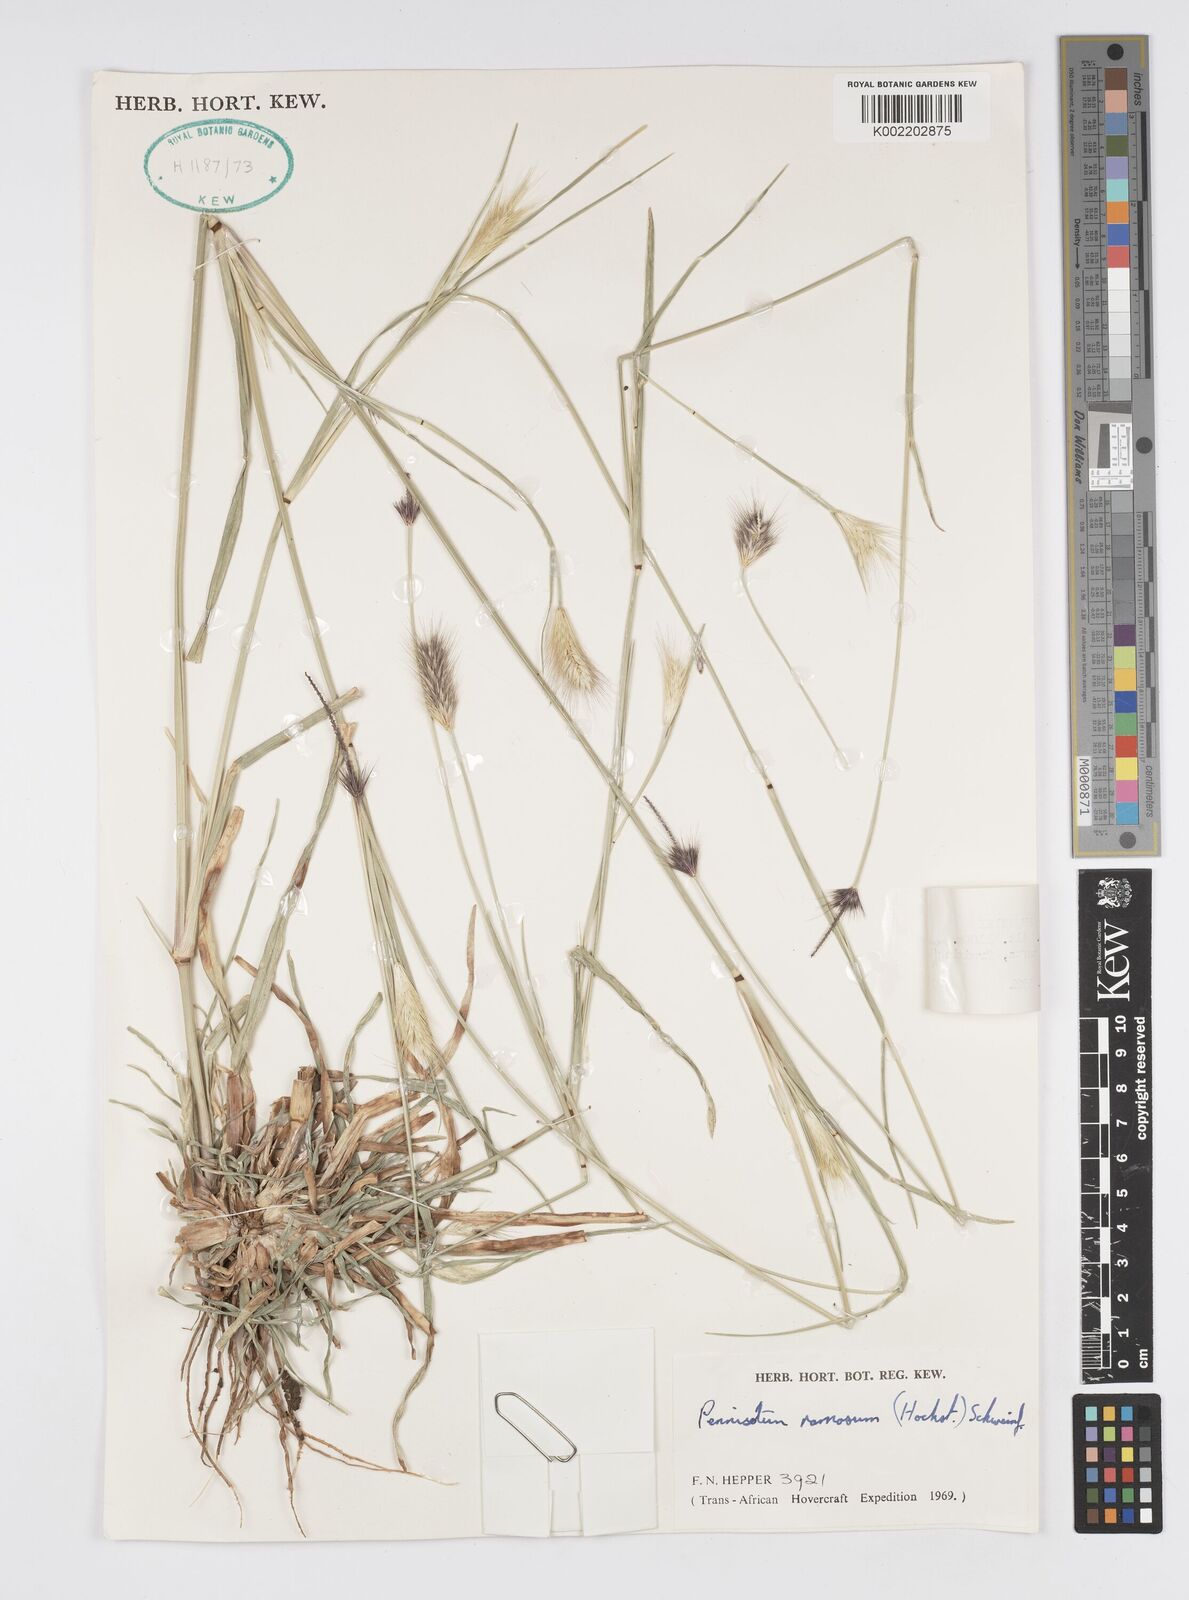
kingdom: Plantae
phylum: Tracheophyta
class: Liliopsida
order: Poales
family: Poaceae
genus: Cenchrus
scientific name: Cenchrus setosus
